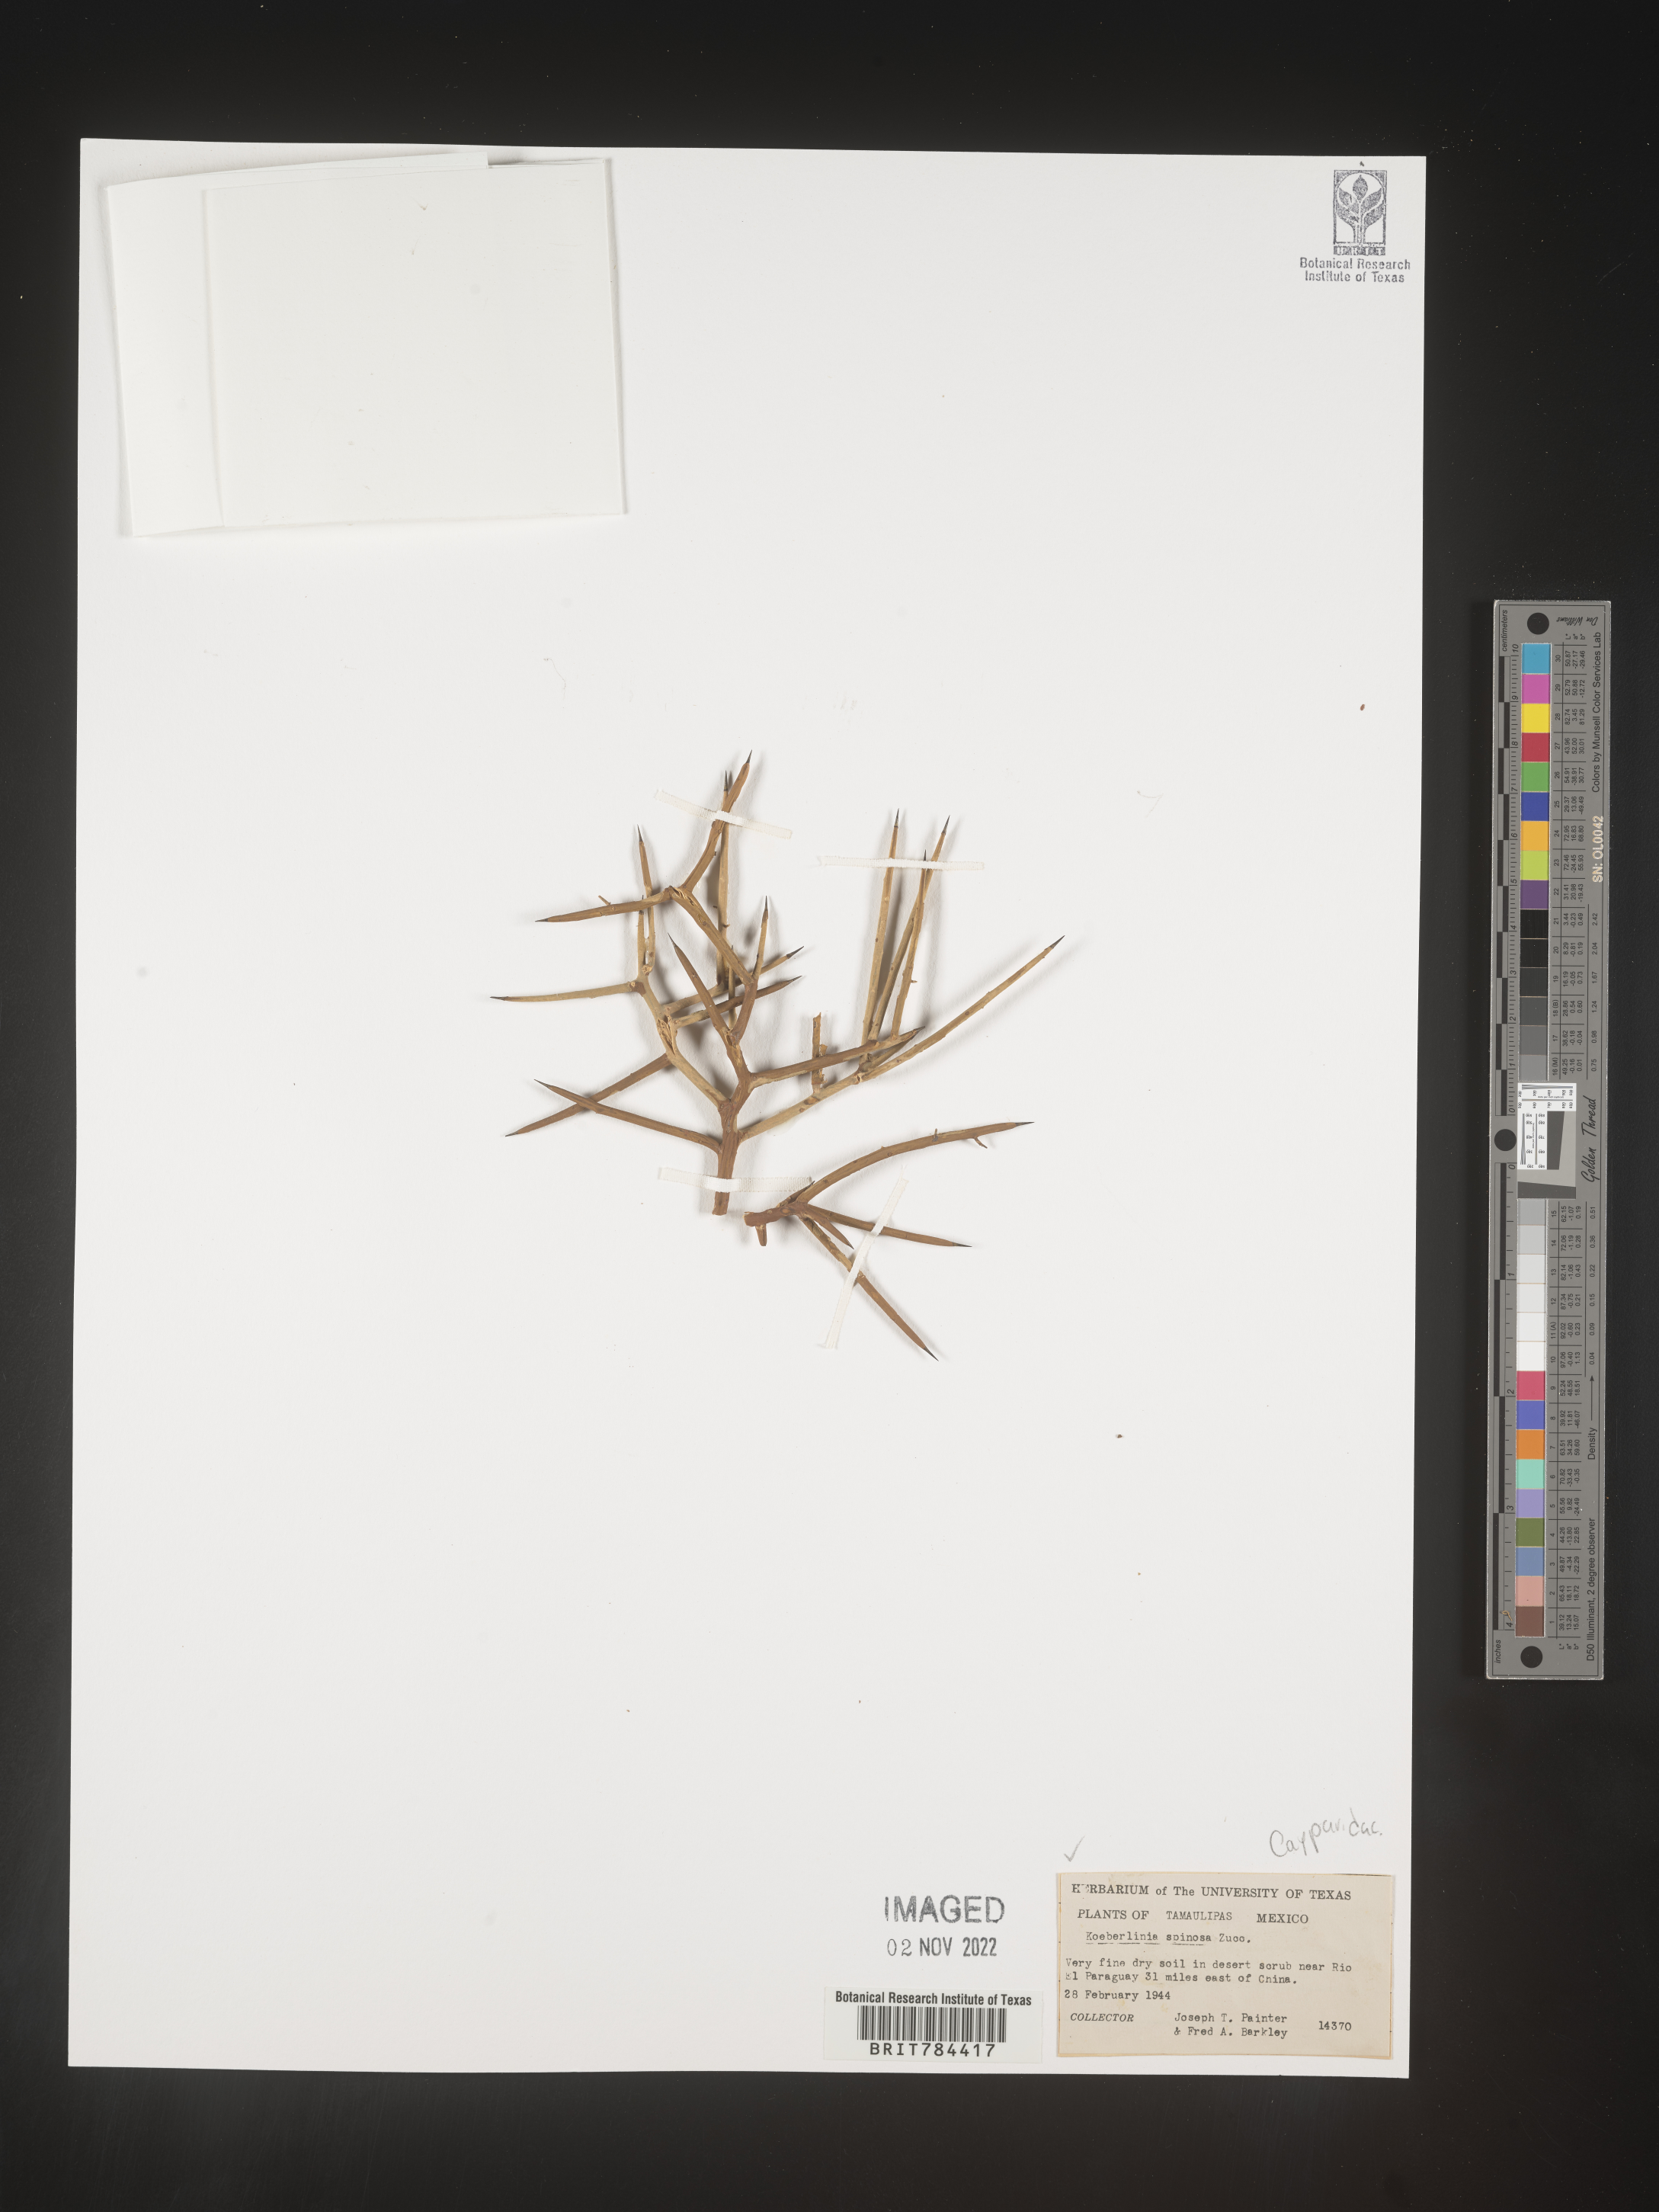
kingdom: Plantae
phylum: Tracheophyta
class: Magnoliopsida
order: Brassicales
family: Koeberliniaceae
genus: Koeberlinia
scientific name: Koeberlinia spinosa
